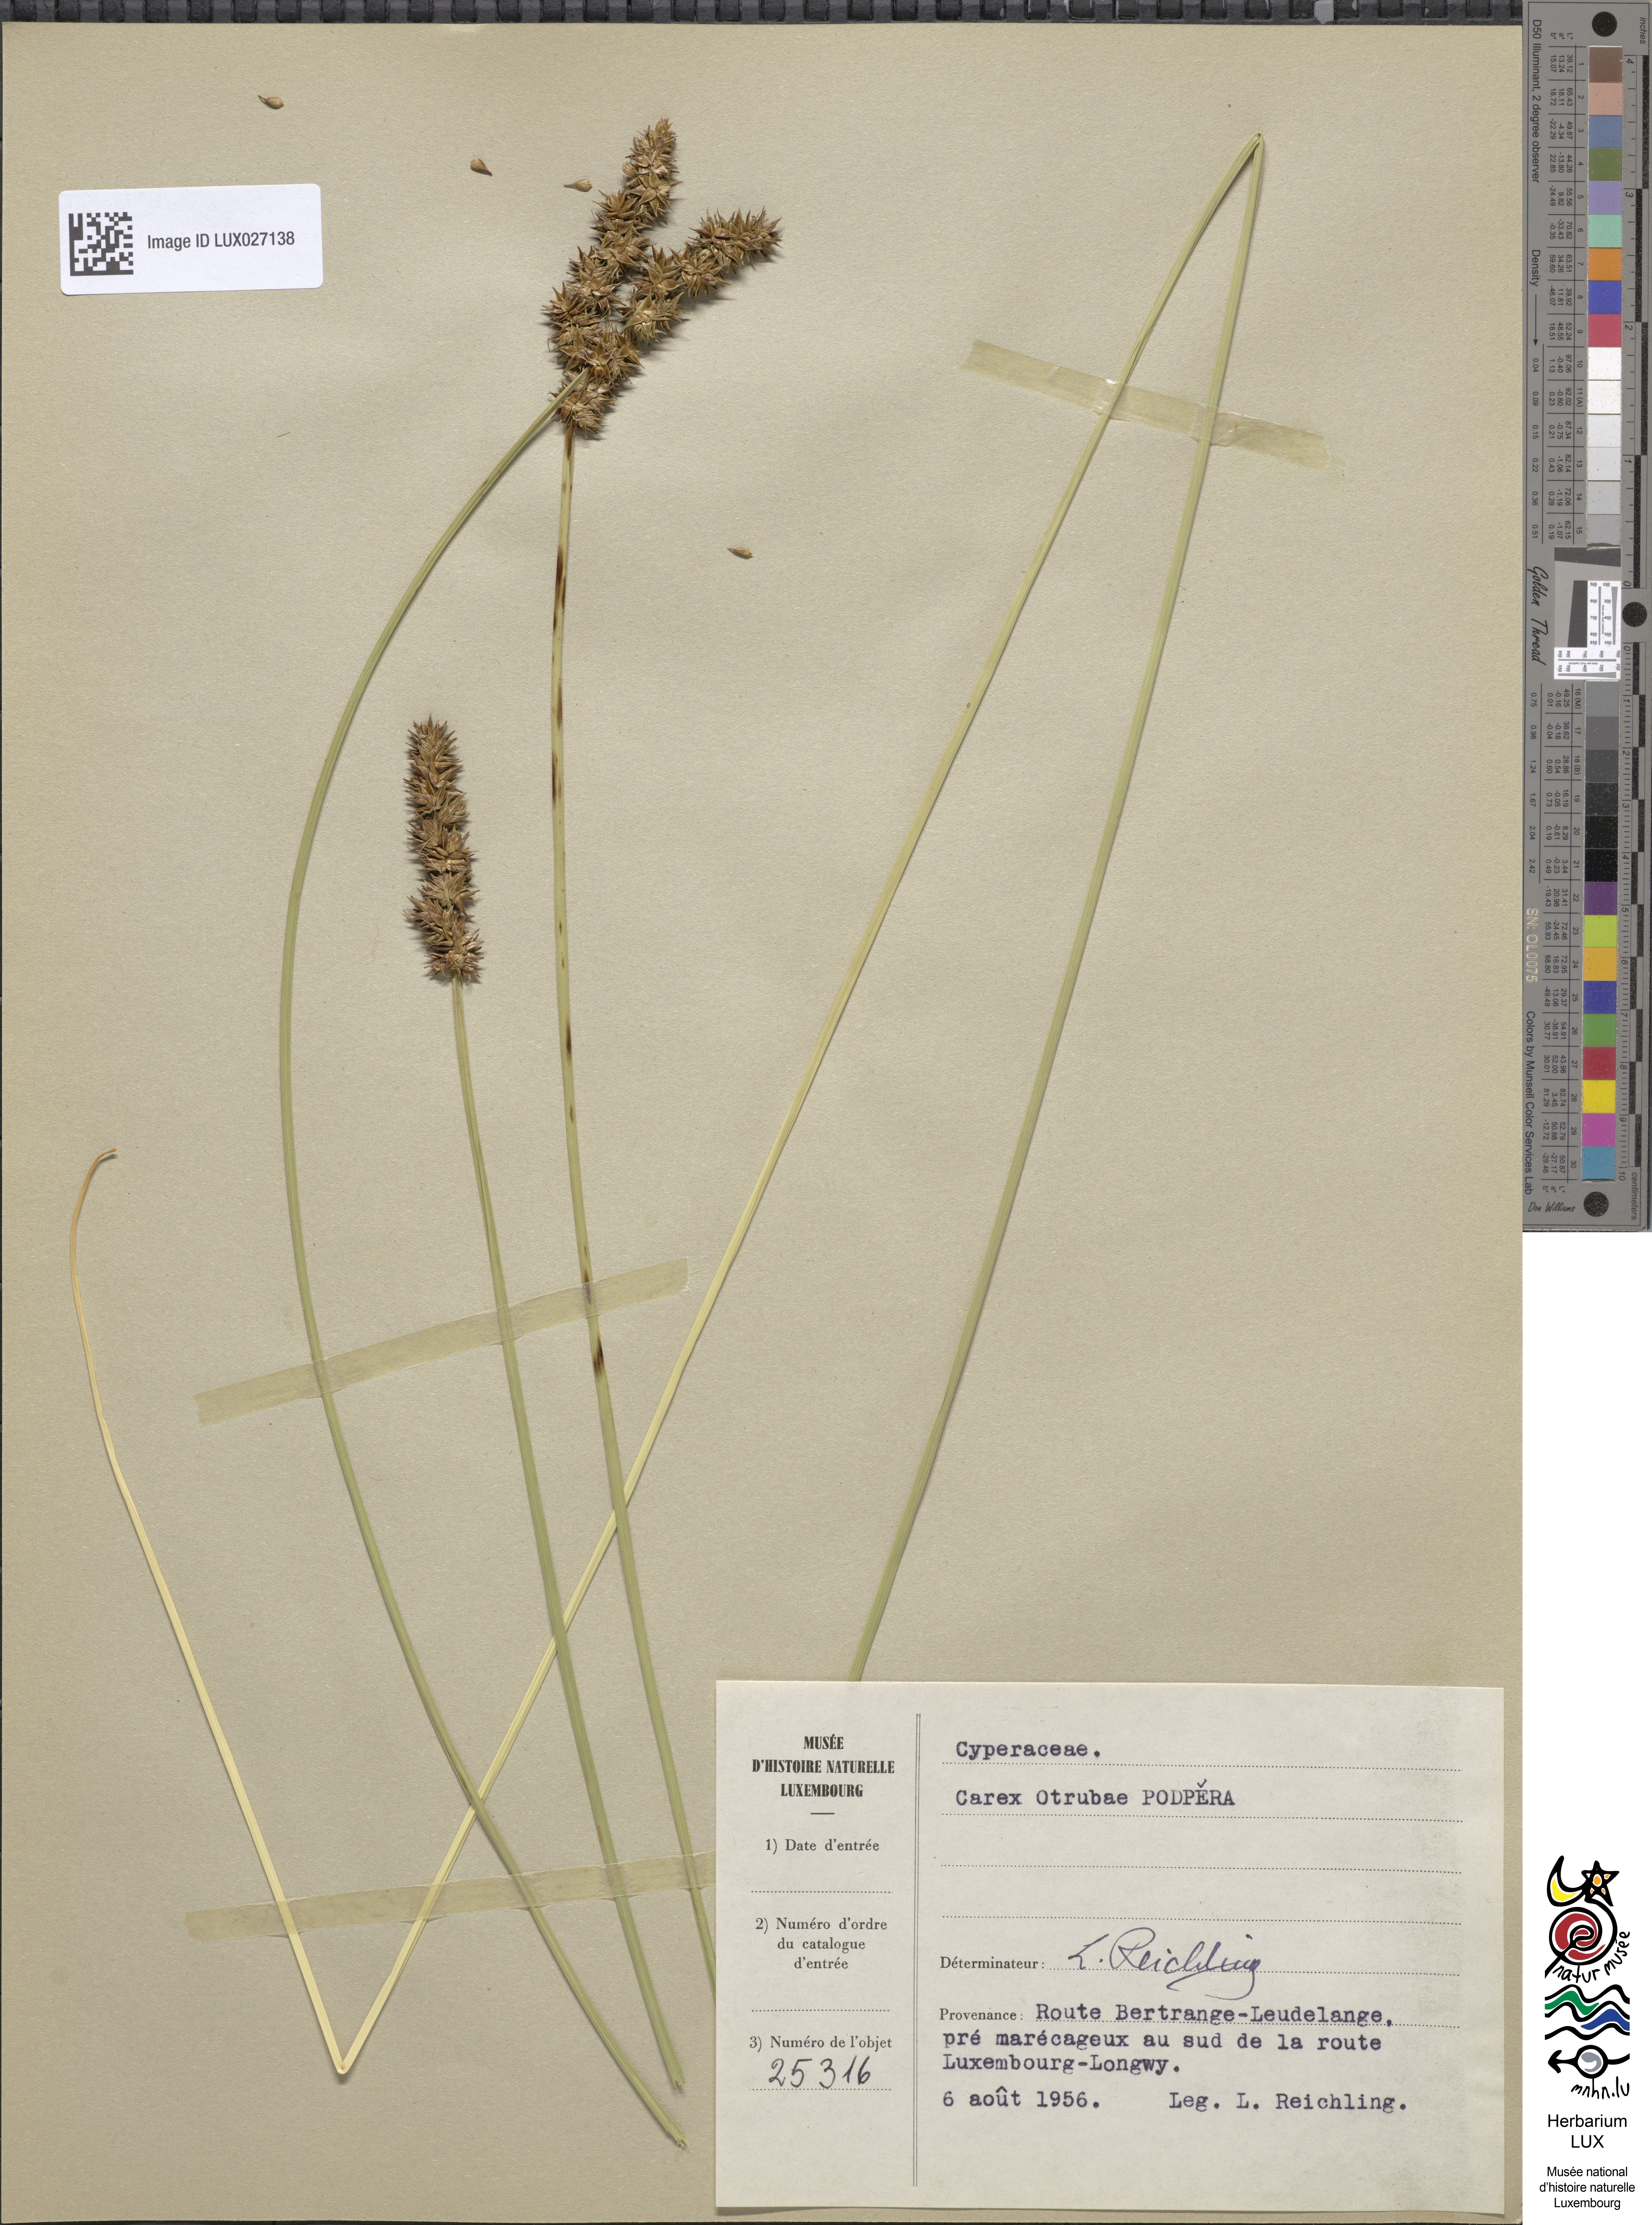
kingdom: Plantae
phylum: Tracheophyta
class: Liliopsida
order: Poales
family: Cyperaceae
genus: Carex
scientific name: Carex leersii
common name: Leers' sedge
